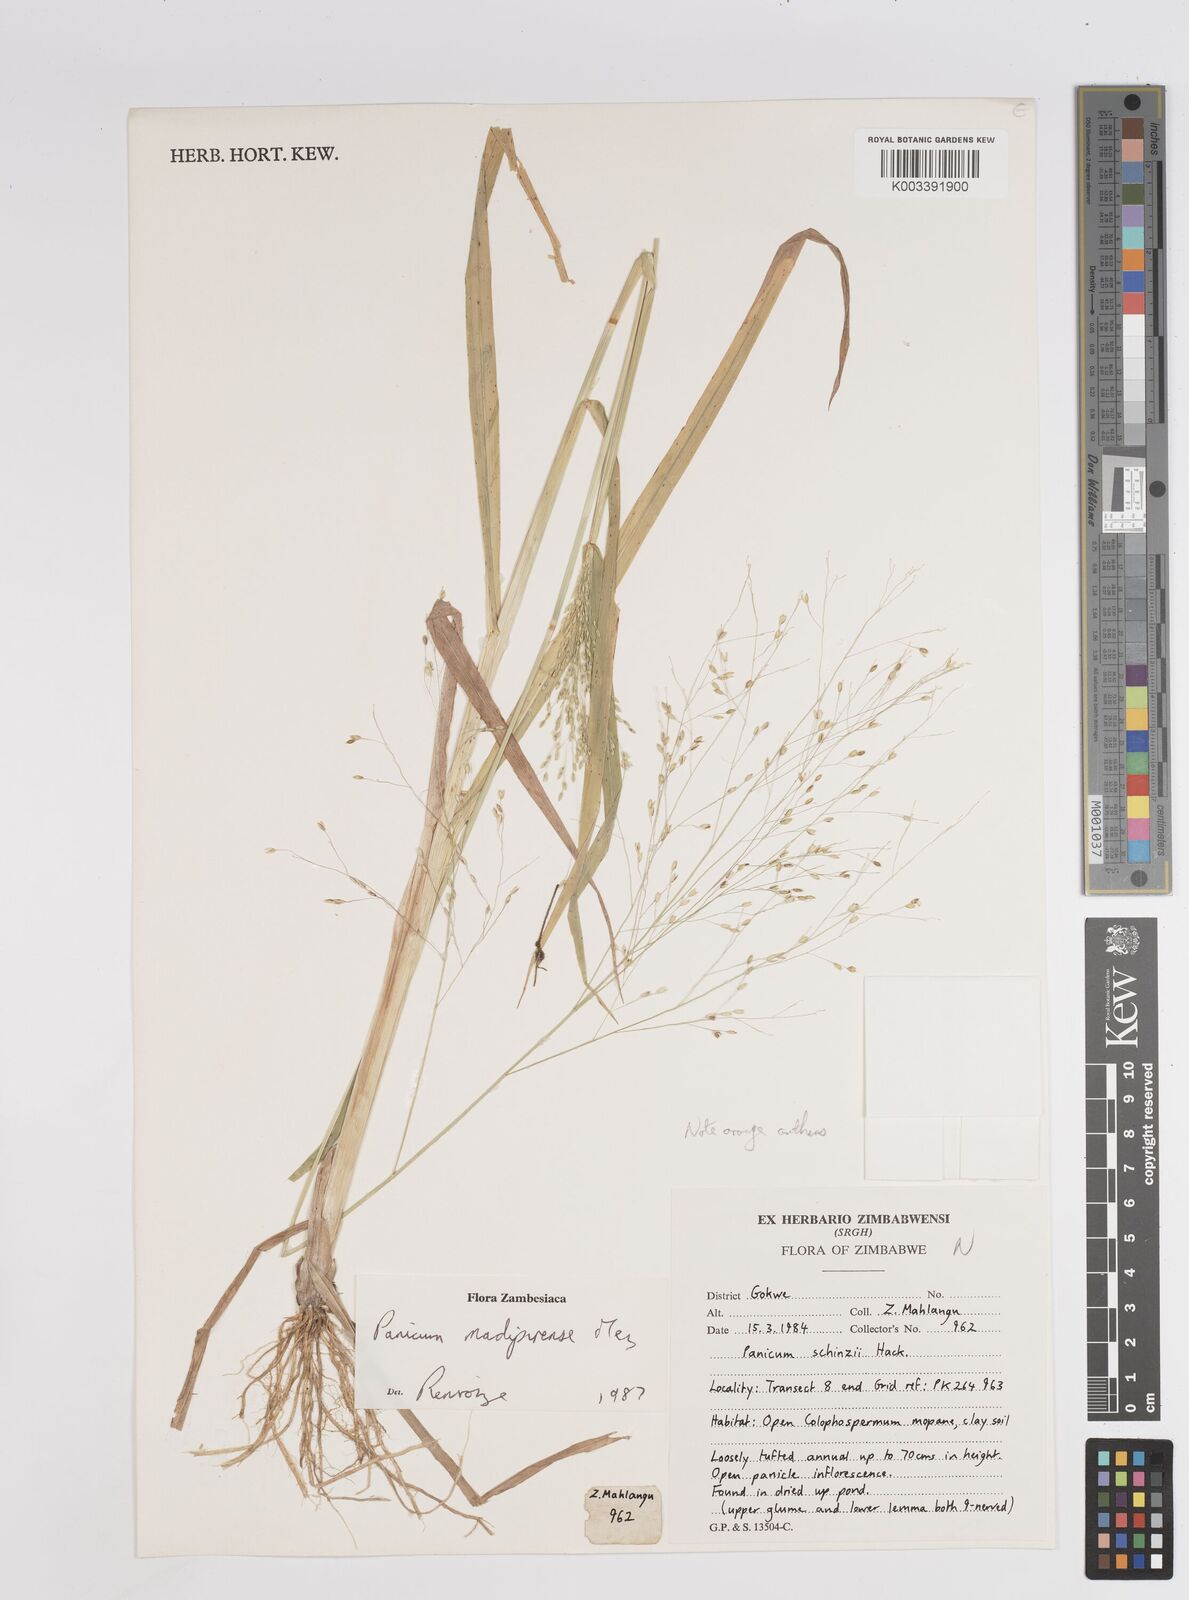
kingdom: Plantae
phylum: Tracheophyta
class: Liliopsida
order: Poales
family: Poaceae
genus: Panicum
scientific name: Panicum madipirense
